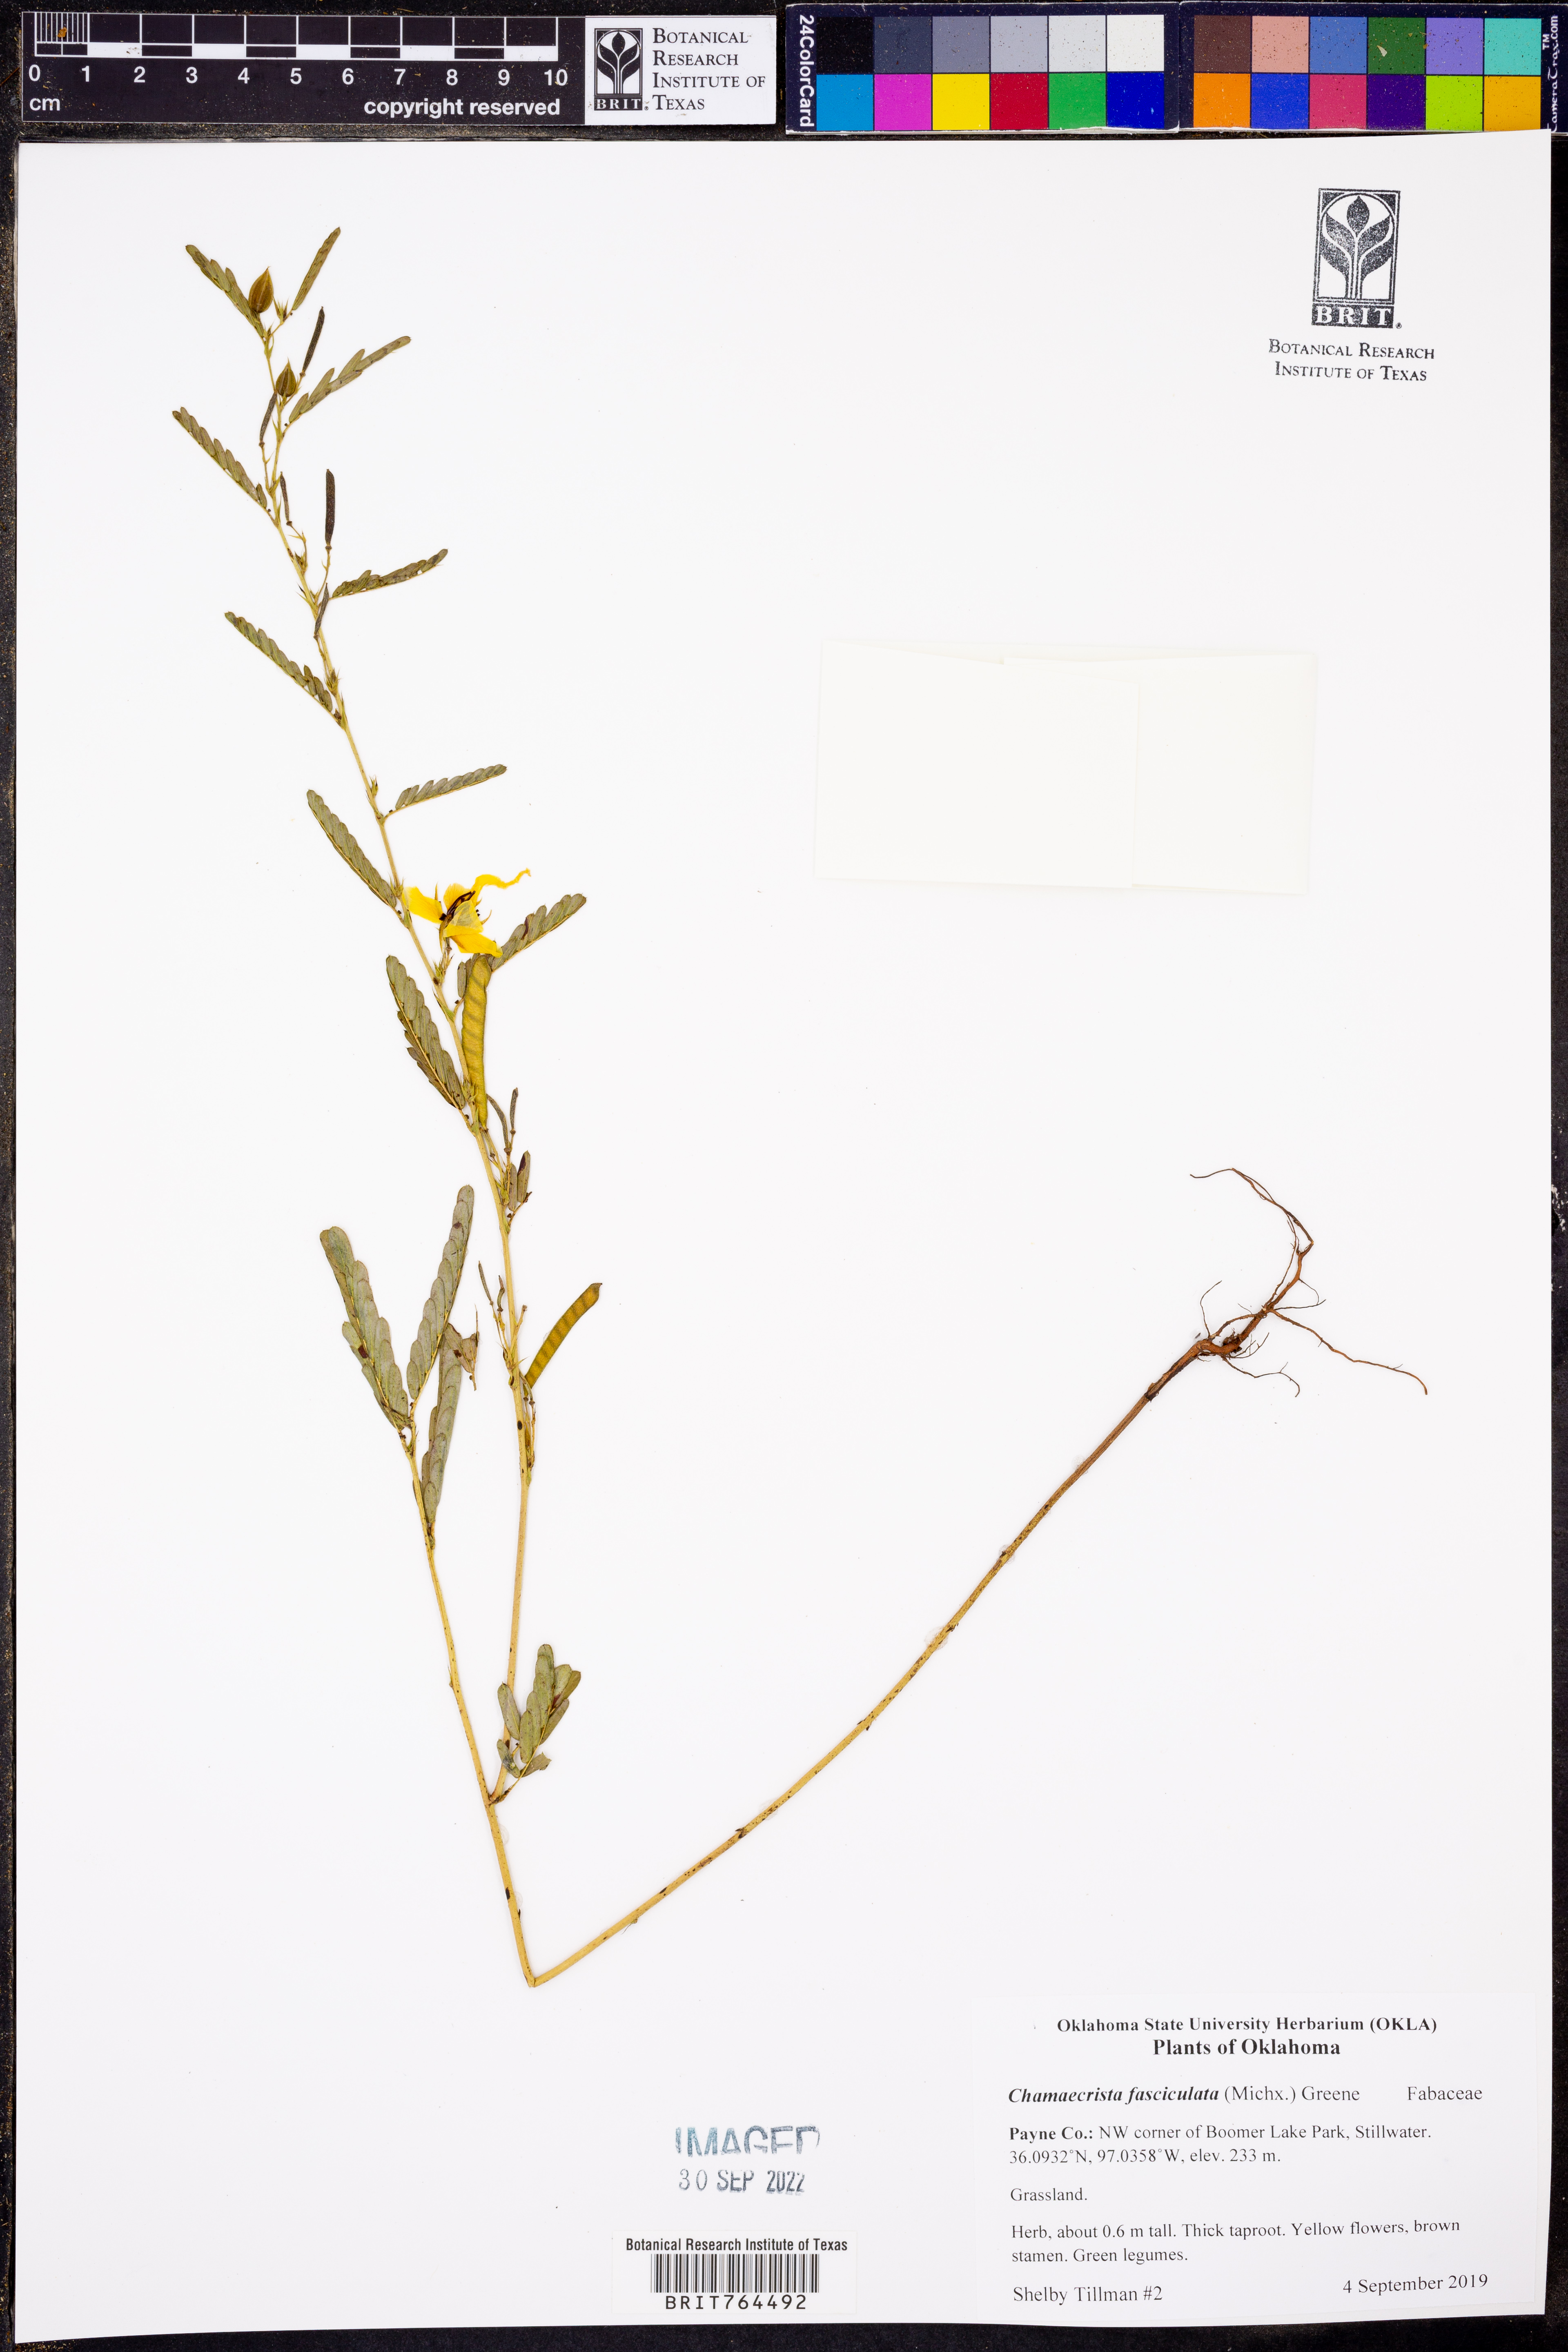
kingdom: Plantae
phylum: Tracheophyta
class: Magnoliopsida
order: Fabales
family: Fabaceae
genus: Chamaecrista
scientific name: Chamaecrista fasciculata
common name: Golden cassia
